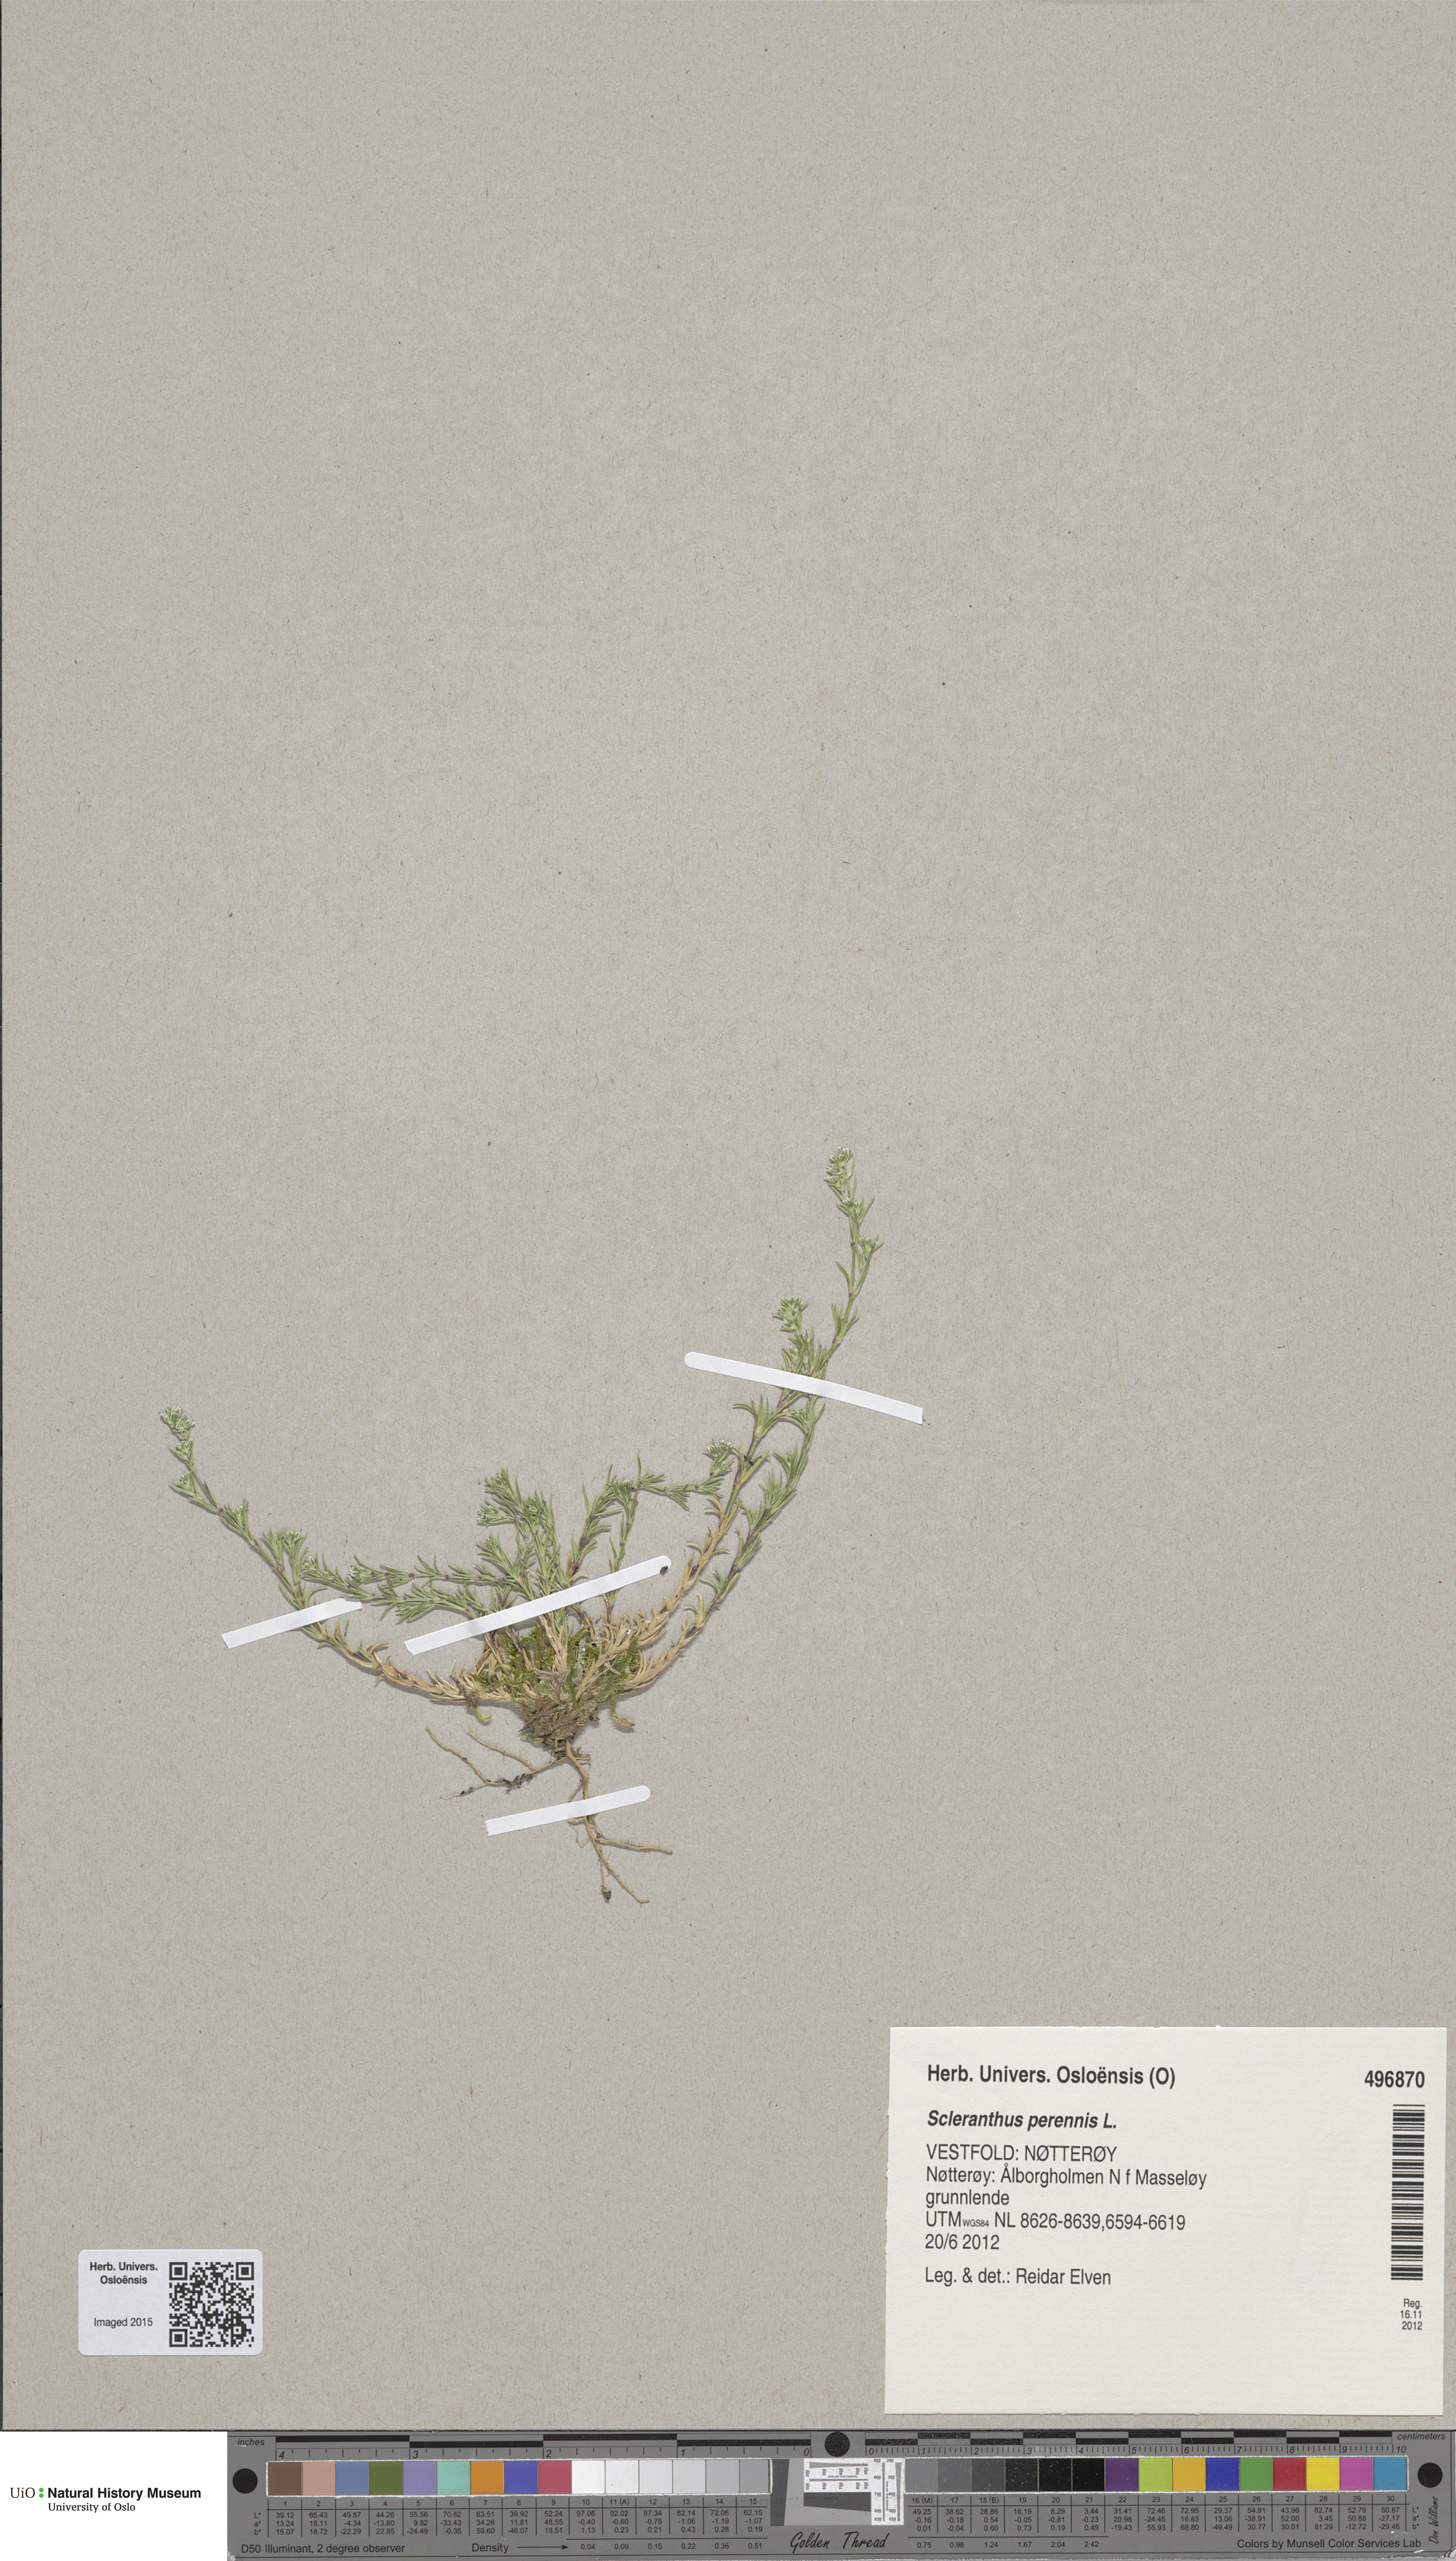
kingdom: Plantae
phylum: Tracheophyta
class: Magnoliopsida
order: Caryophyllales
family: Caryophyllaceae
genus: Scleranthus
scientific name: Scleranthus perennis
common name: Perennial knawel
